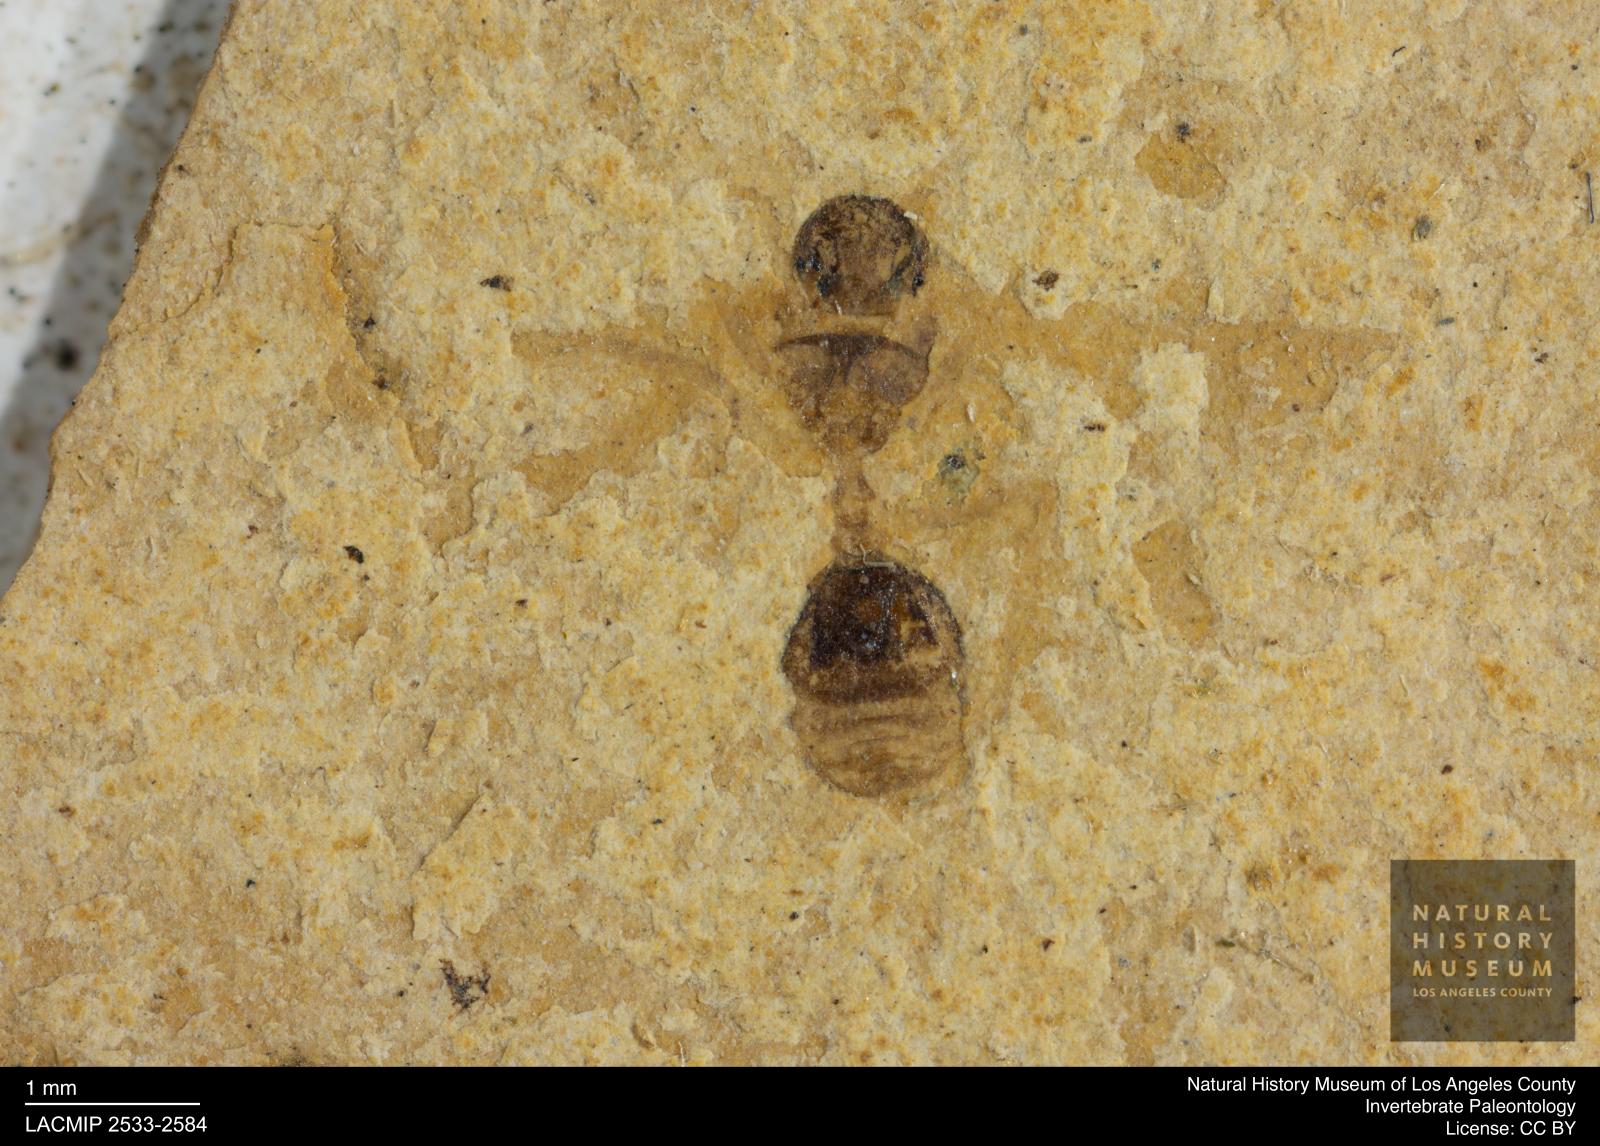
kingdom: Animalia
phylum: Arthropoda
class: Insecta
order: Hymenoptera
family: Formicidae
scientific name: Formicidae
